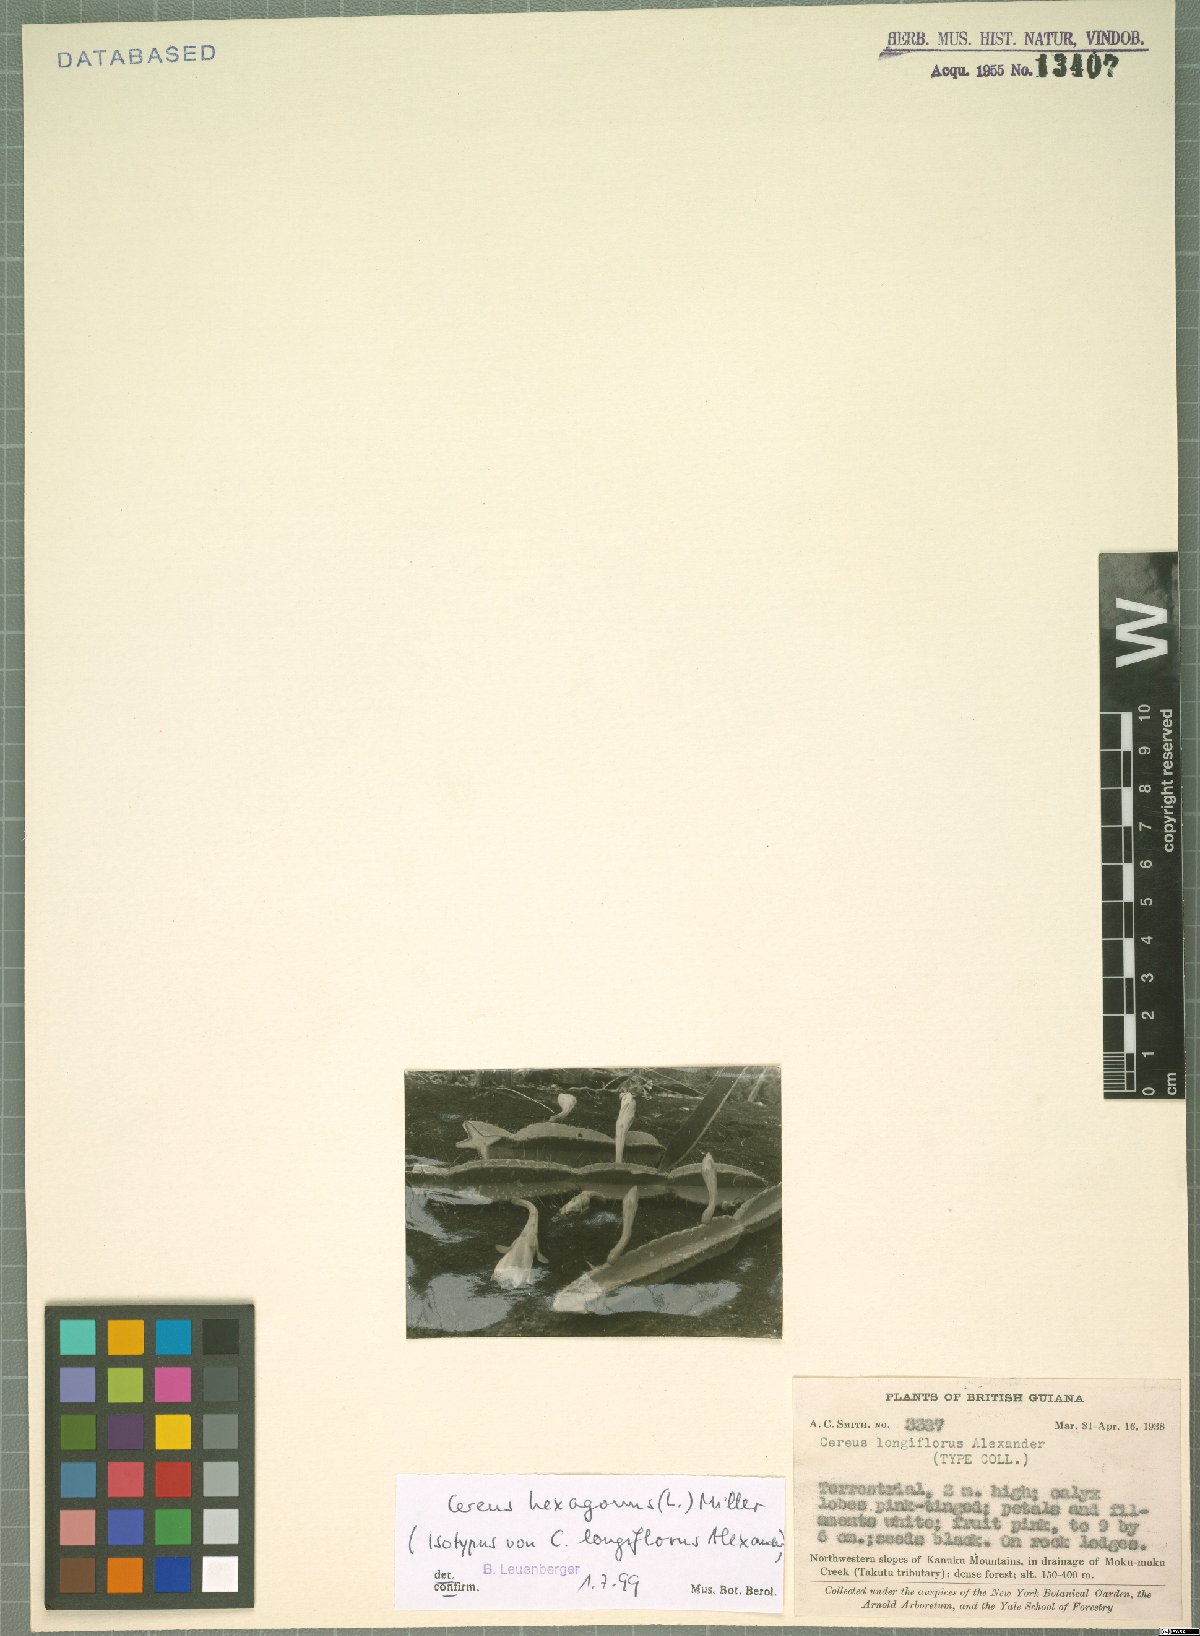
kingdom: Plantae
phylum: Tracheophyta
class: Magnoliopsida
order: Caryophyllales
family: Cactaceae
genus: Cereus
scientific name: Cereus hexagonus
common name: Lady of the night cactus
